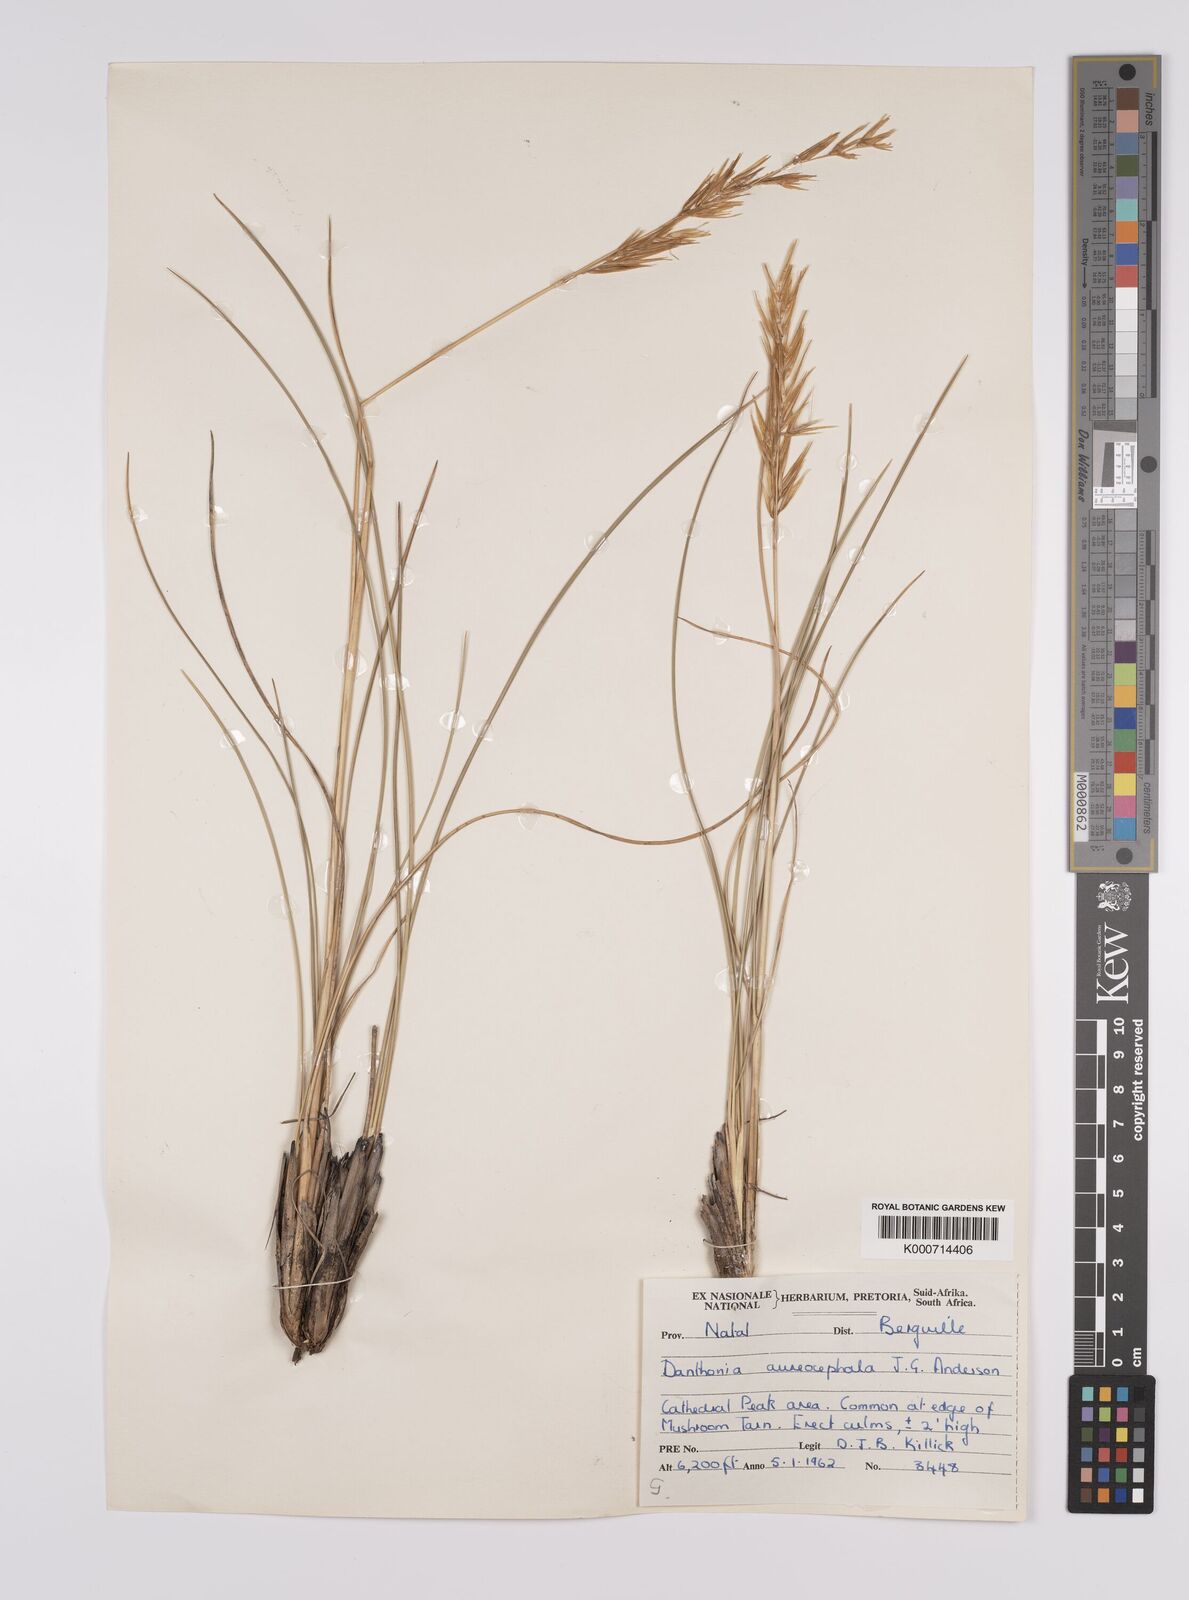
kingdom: Plantae
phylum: Tracheophyta
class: Liliopsida
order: Poales
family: Poaceae
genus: Rytidosperma
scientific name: Rytidosperma
